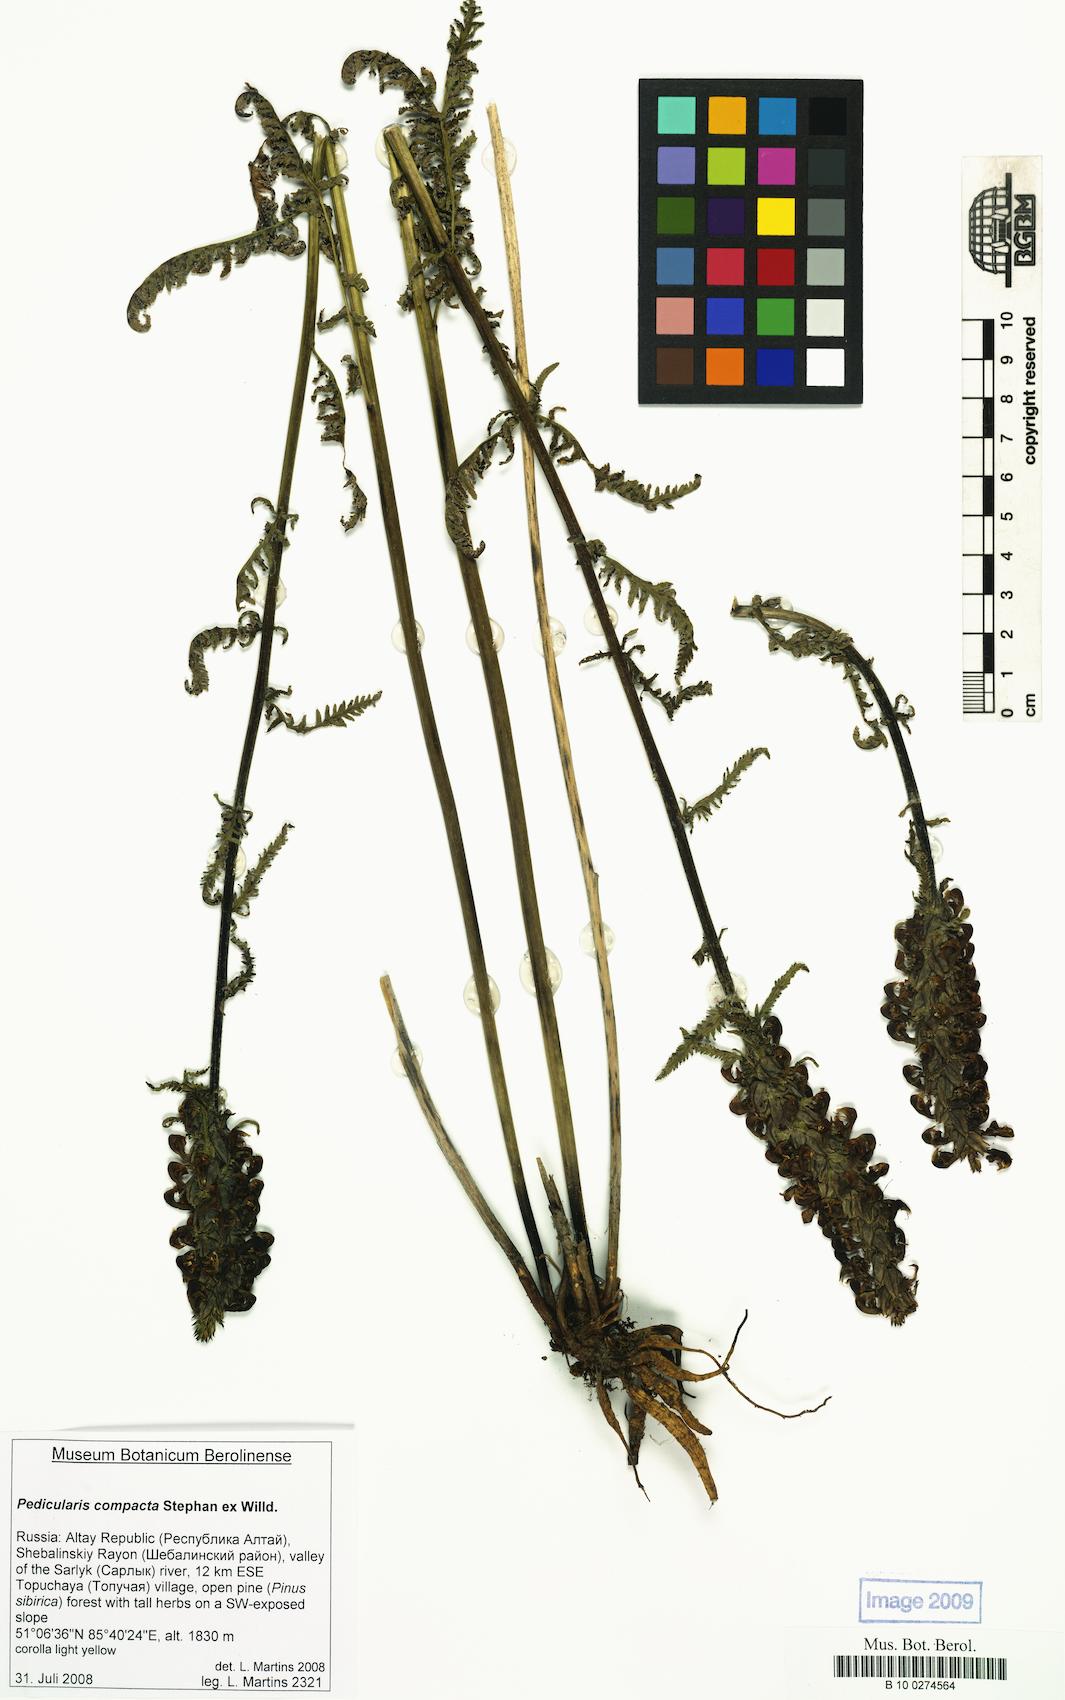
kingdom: Plantae
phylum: Tracheophyta
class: Magnoliopsida
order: Lamiales
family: Orobanchaceae
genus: Pedicularis
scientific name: Pedicularis compacta
